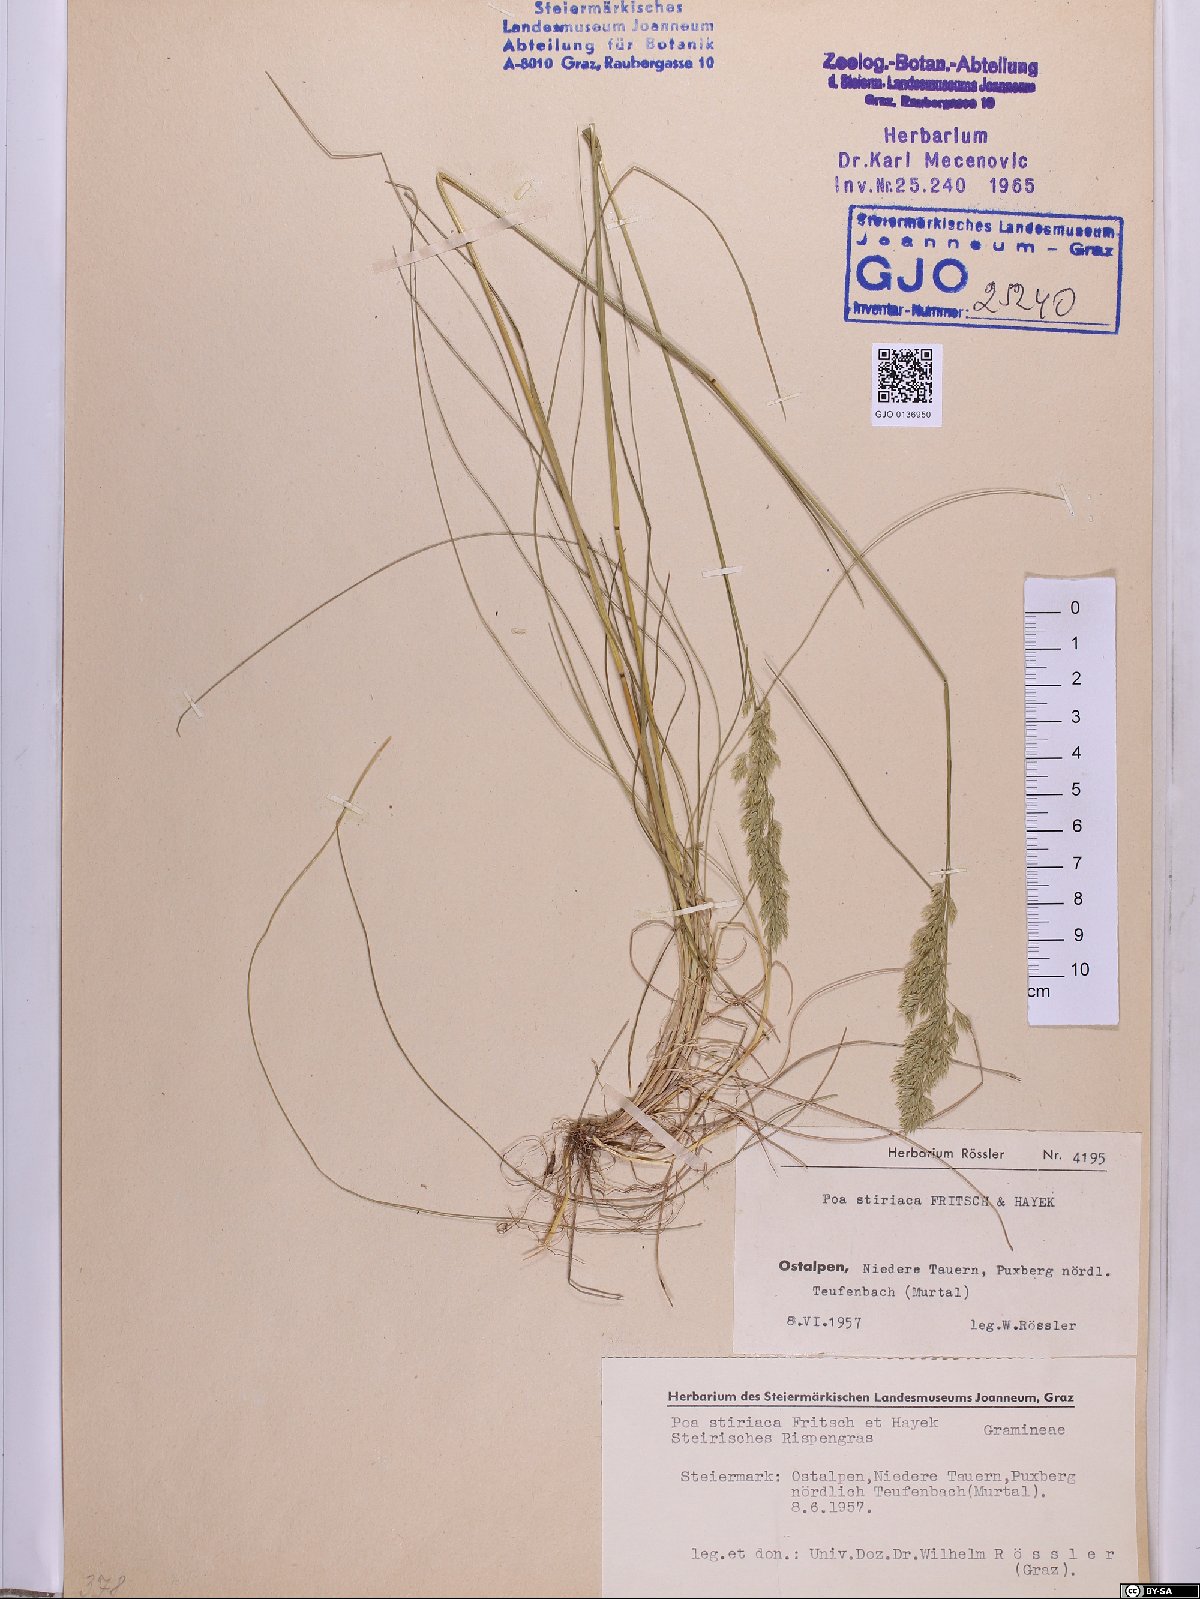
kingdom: Plantae
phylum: Tracheophyta
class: Liliopsida
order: Poales
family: Poaceae
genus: Poa
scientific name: Poa stiriaca
